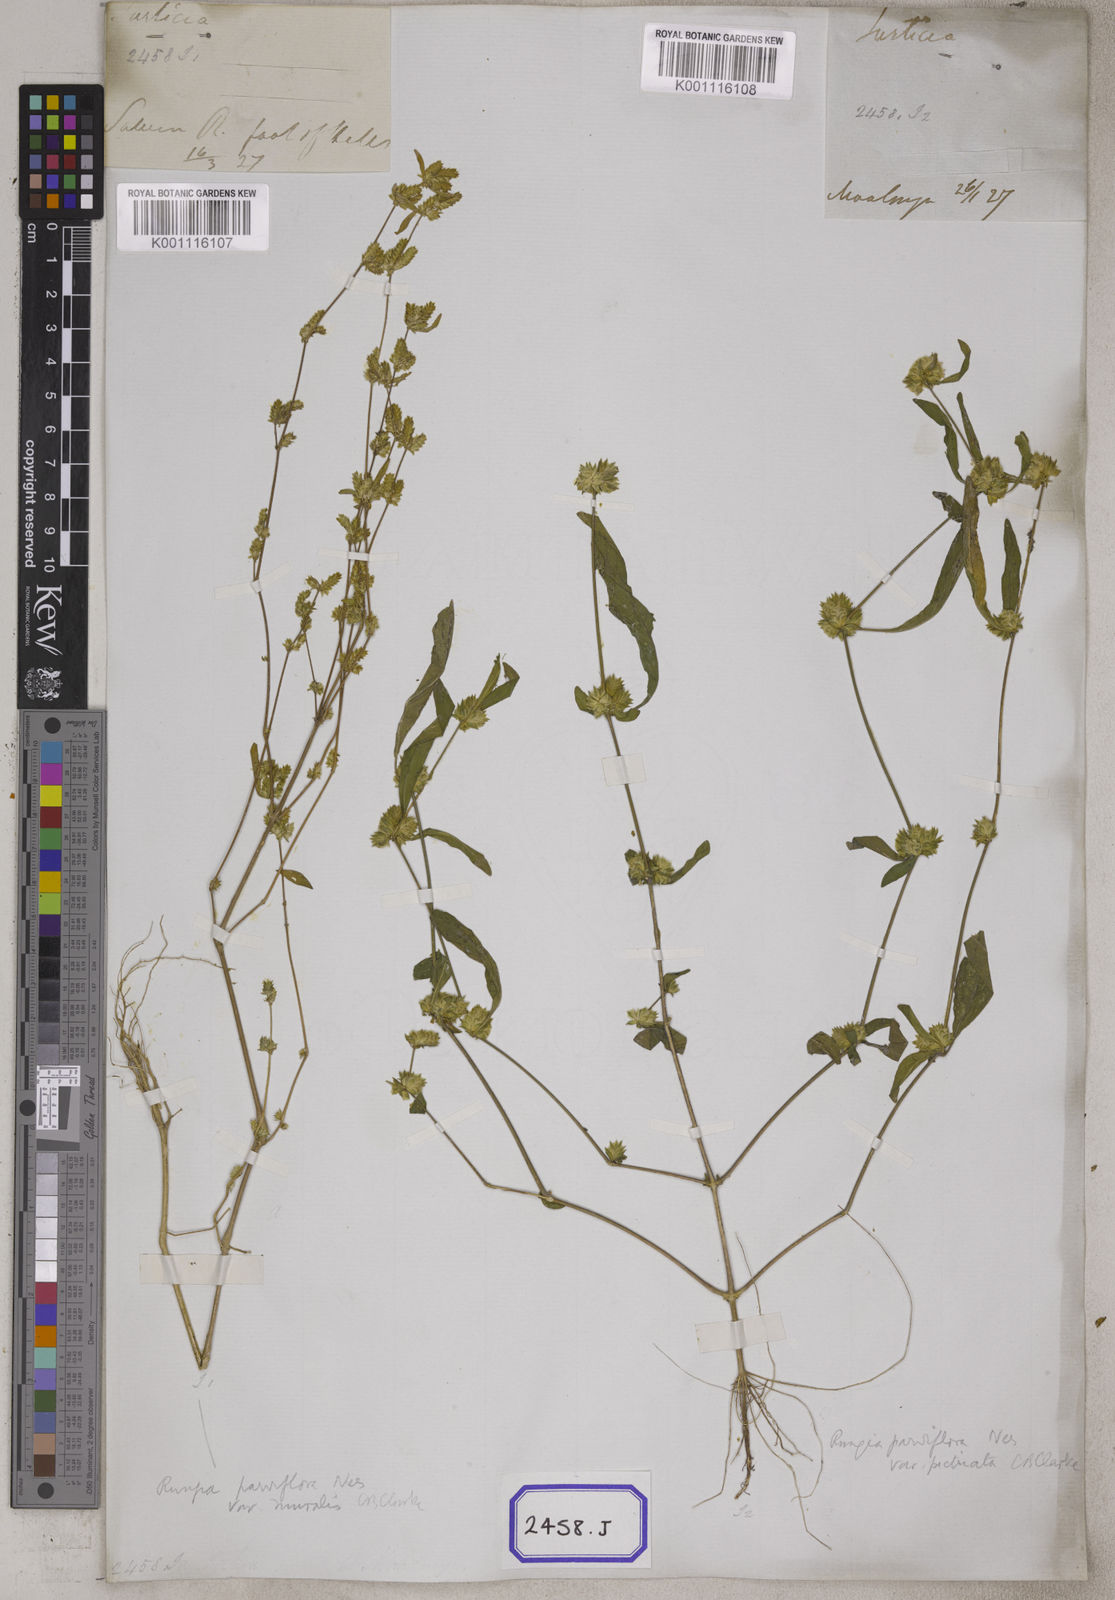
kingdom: Plantae
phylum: Tracheophyta
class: Magnoliopsida
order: Lamiales
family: Acanthaceae
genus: Rungia
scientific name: Rungia pectinata
